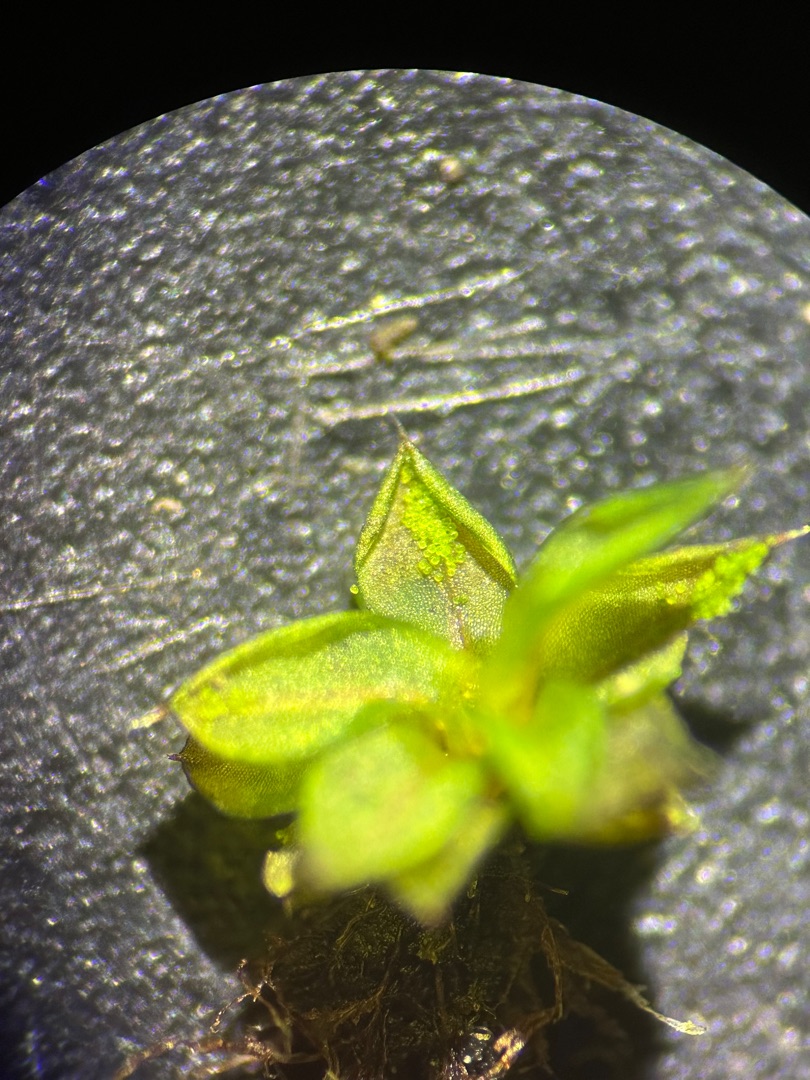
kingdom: Plantae
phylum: Bryophyta
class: Bryopsida
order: Pottiales
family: Pottiaceae
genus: Syntrichia
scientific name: Syntrichia papillosa
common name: Bark-hårstjerne
